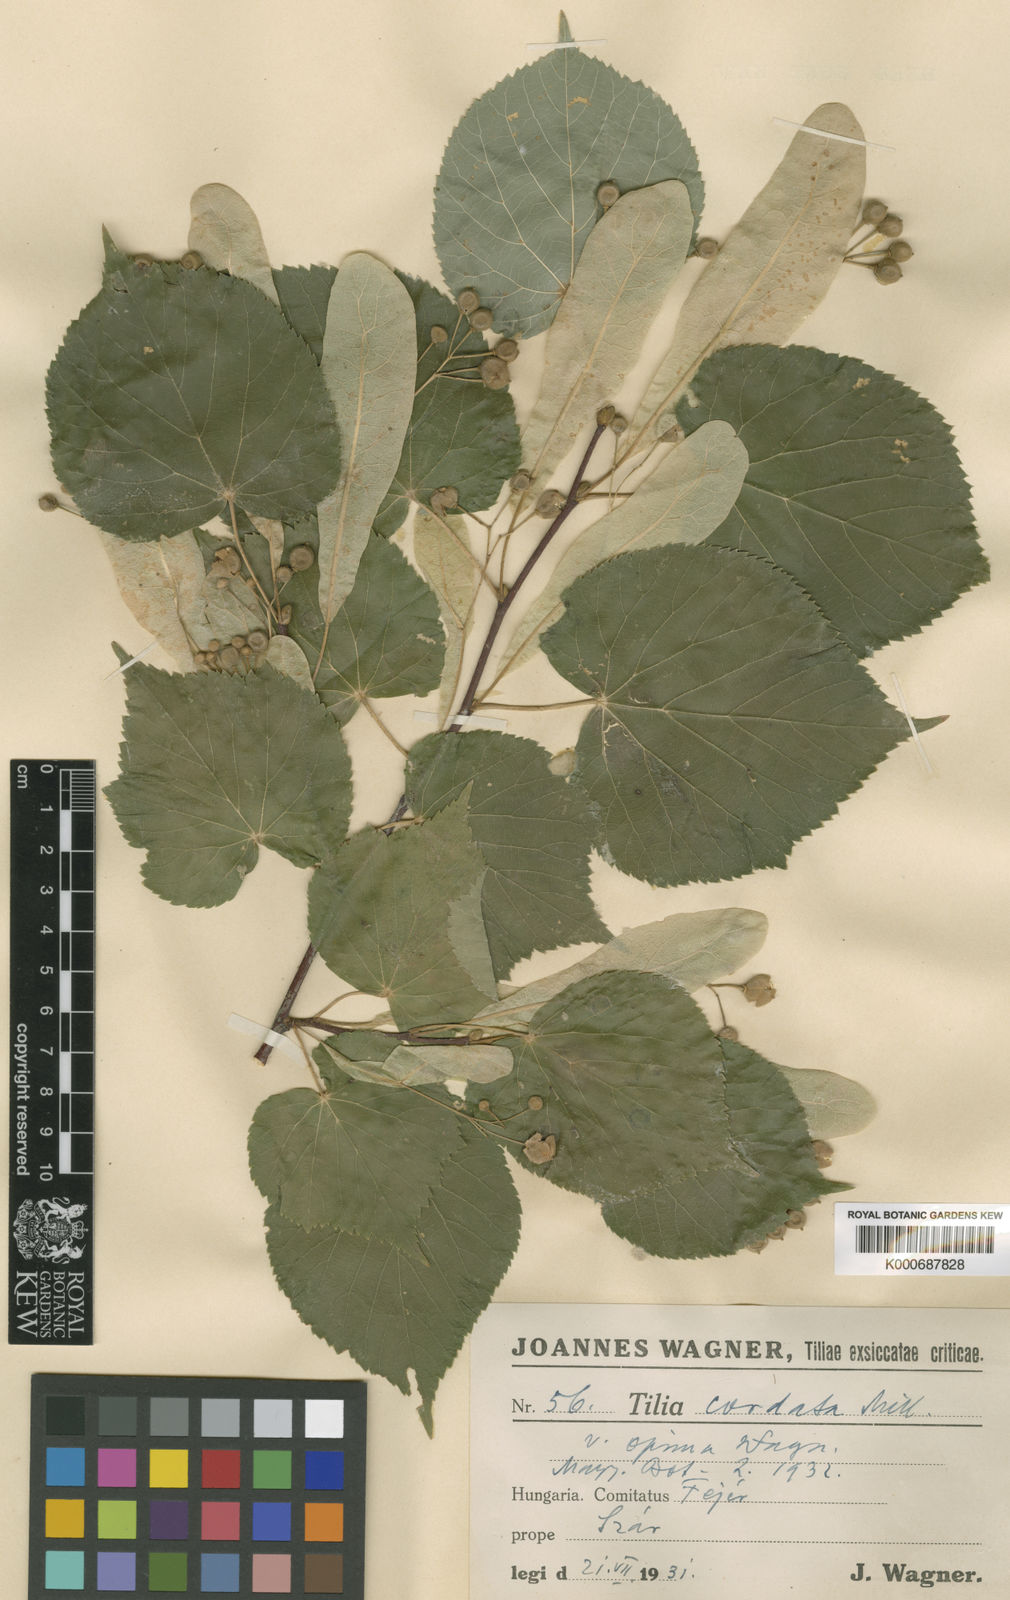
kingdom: Plantae
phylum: Tracheophyta
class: Magnoliopsida
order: Malvales
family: Malvaceae
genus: Tilia
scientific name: Tilia cordata
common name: Small-leaved lime
